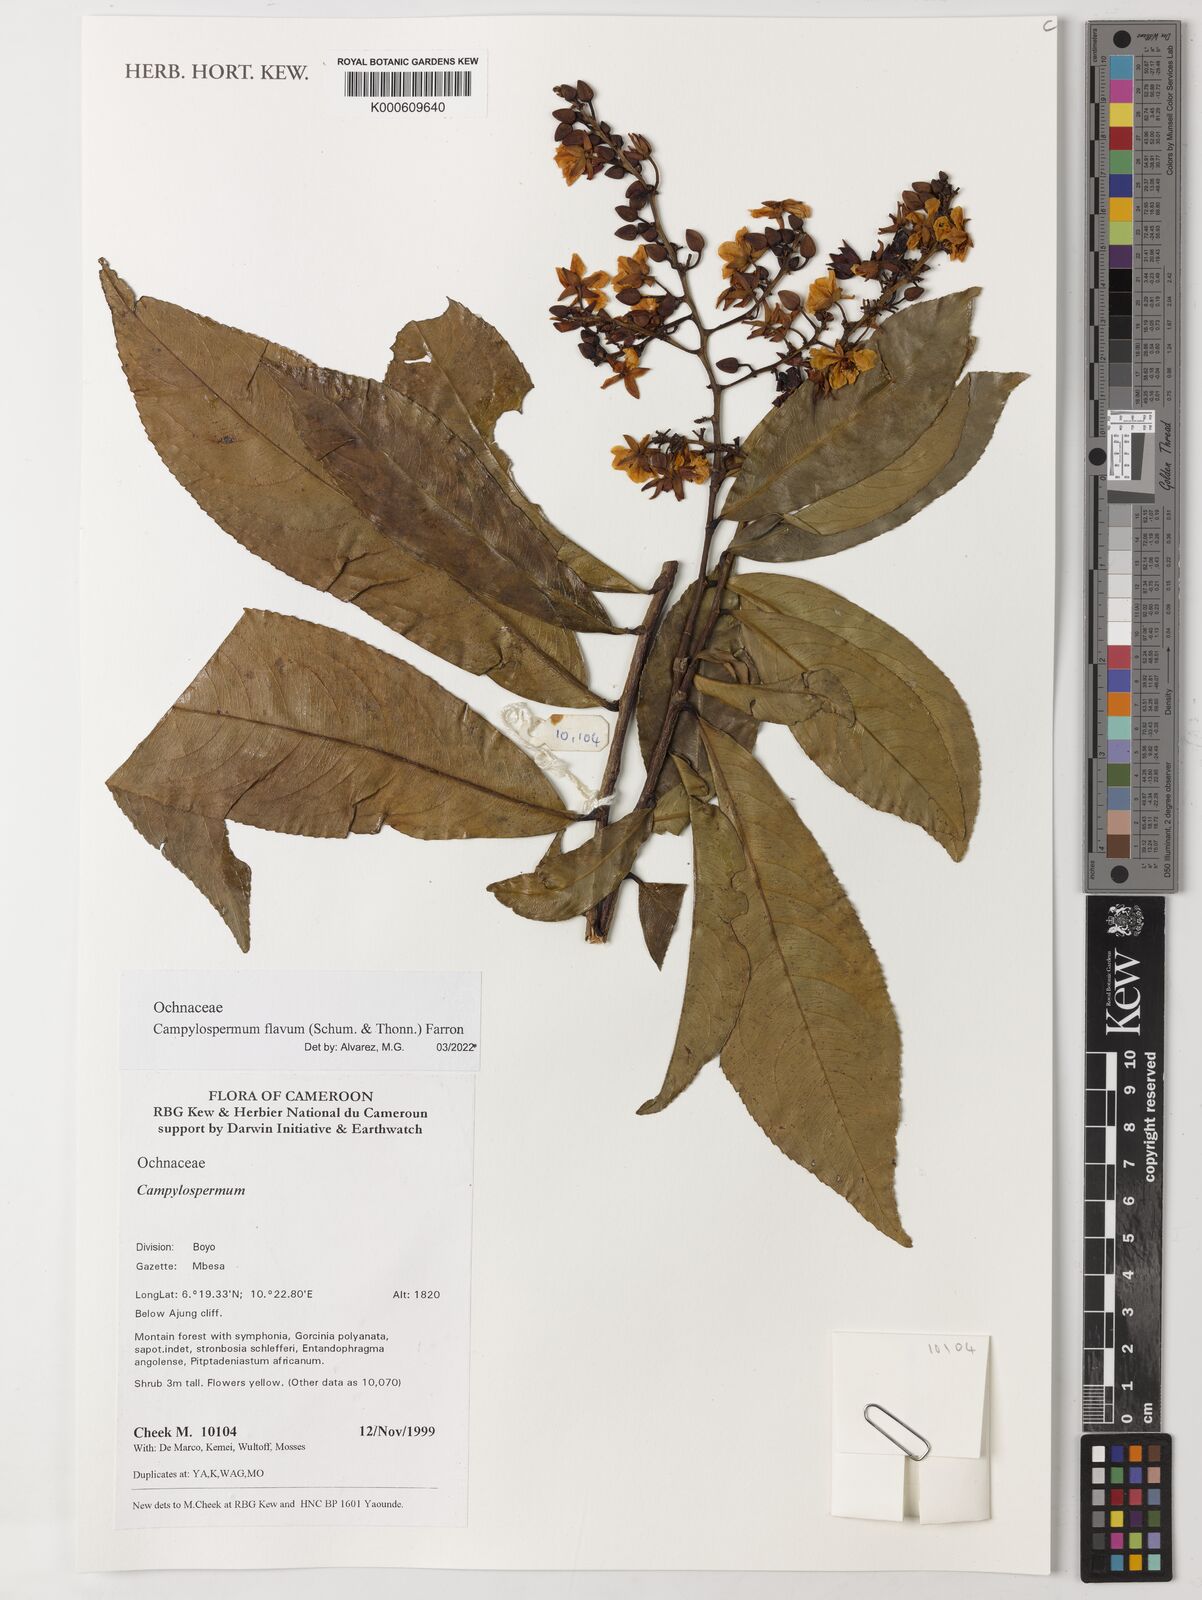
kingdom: Plantae
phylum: Tracheophyta
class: Magnoliopsida
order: Malpighiales
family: Ochnaceae
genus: Campylospermum
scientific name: Campylospermum flavum
